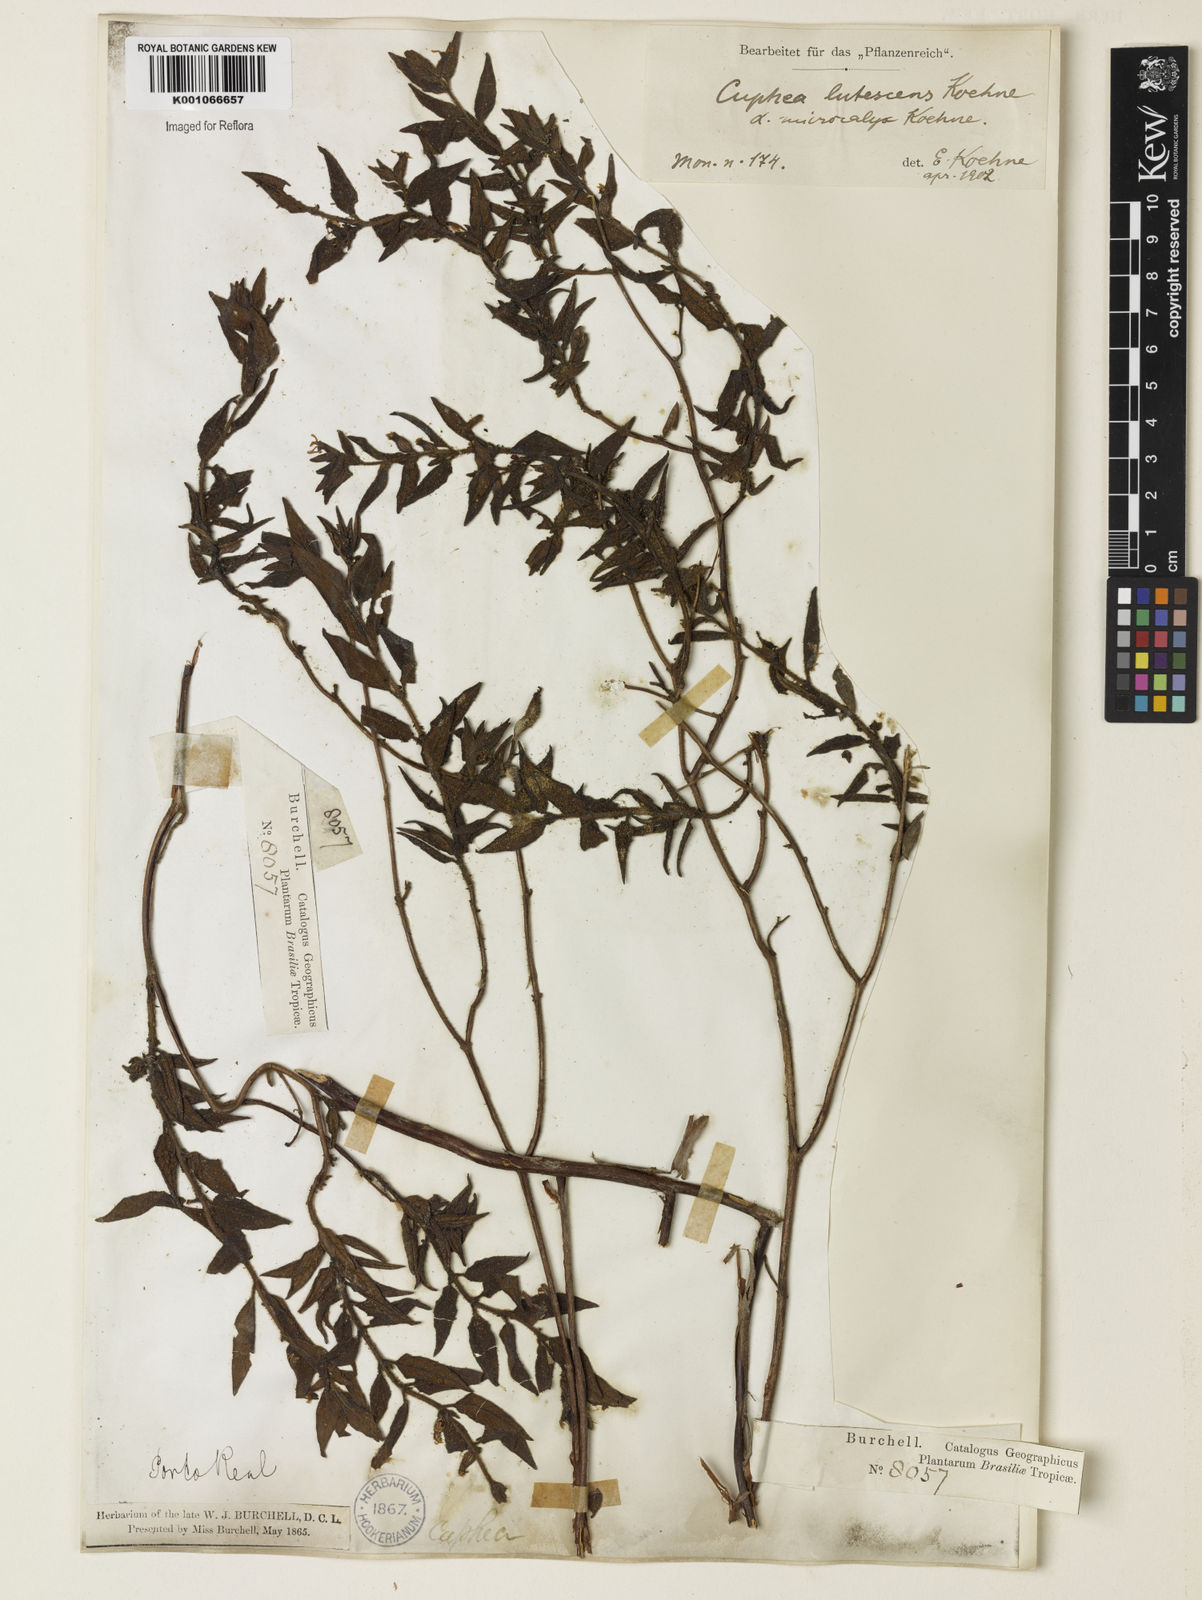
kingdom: Plantae
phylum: Tracheophyta
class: Magnoliopsida
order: Myrtales
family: Lythraceae
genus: Cuphea
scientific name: Cuphea
